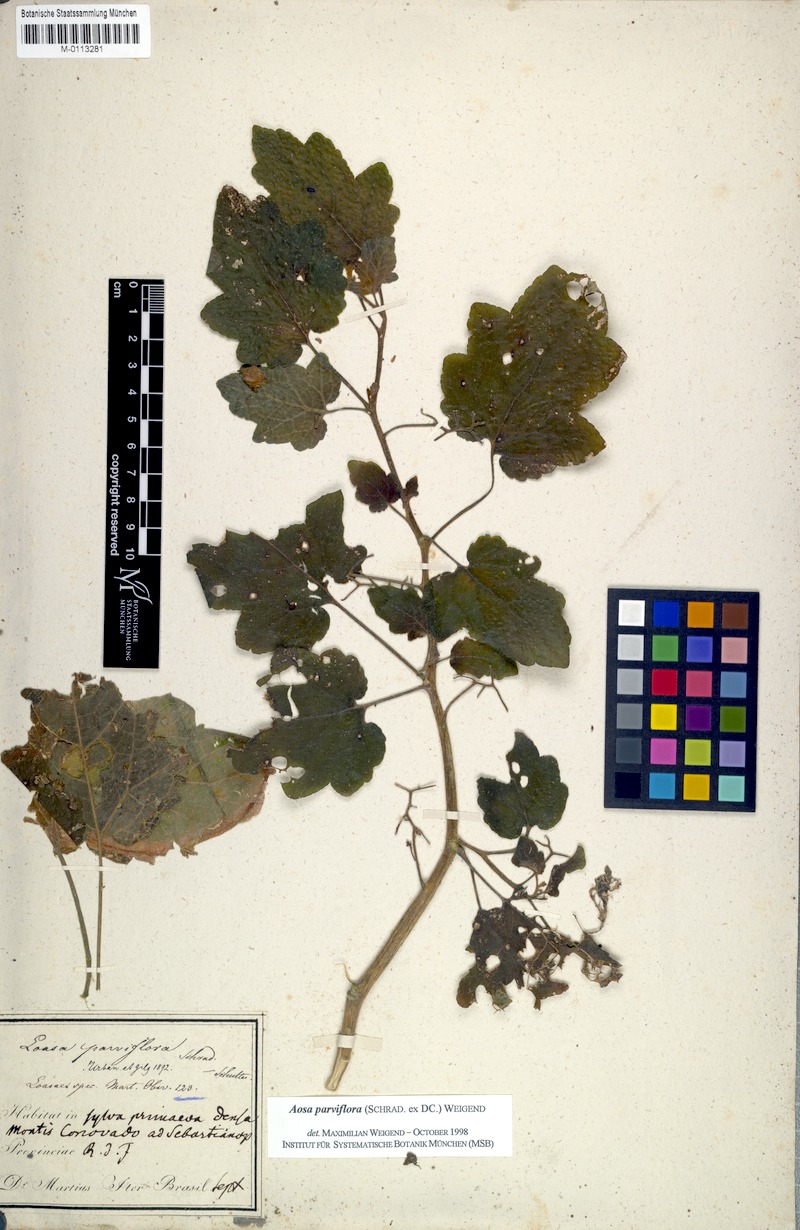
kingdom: Plantae
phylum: Tracheophyta
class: Magnoliopsida
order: Cornales
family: Loasaceae
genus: Aosa
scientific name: Aosa parviflora
